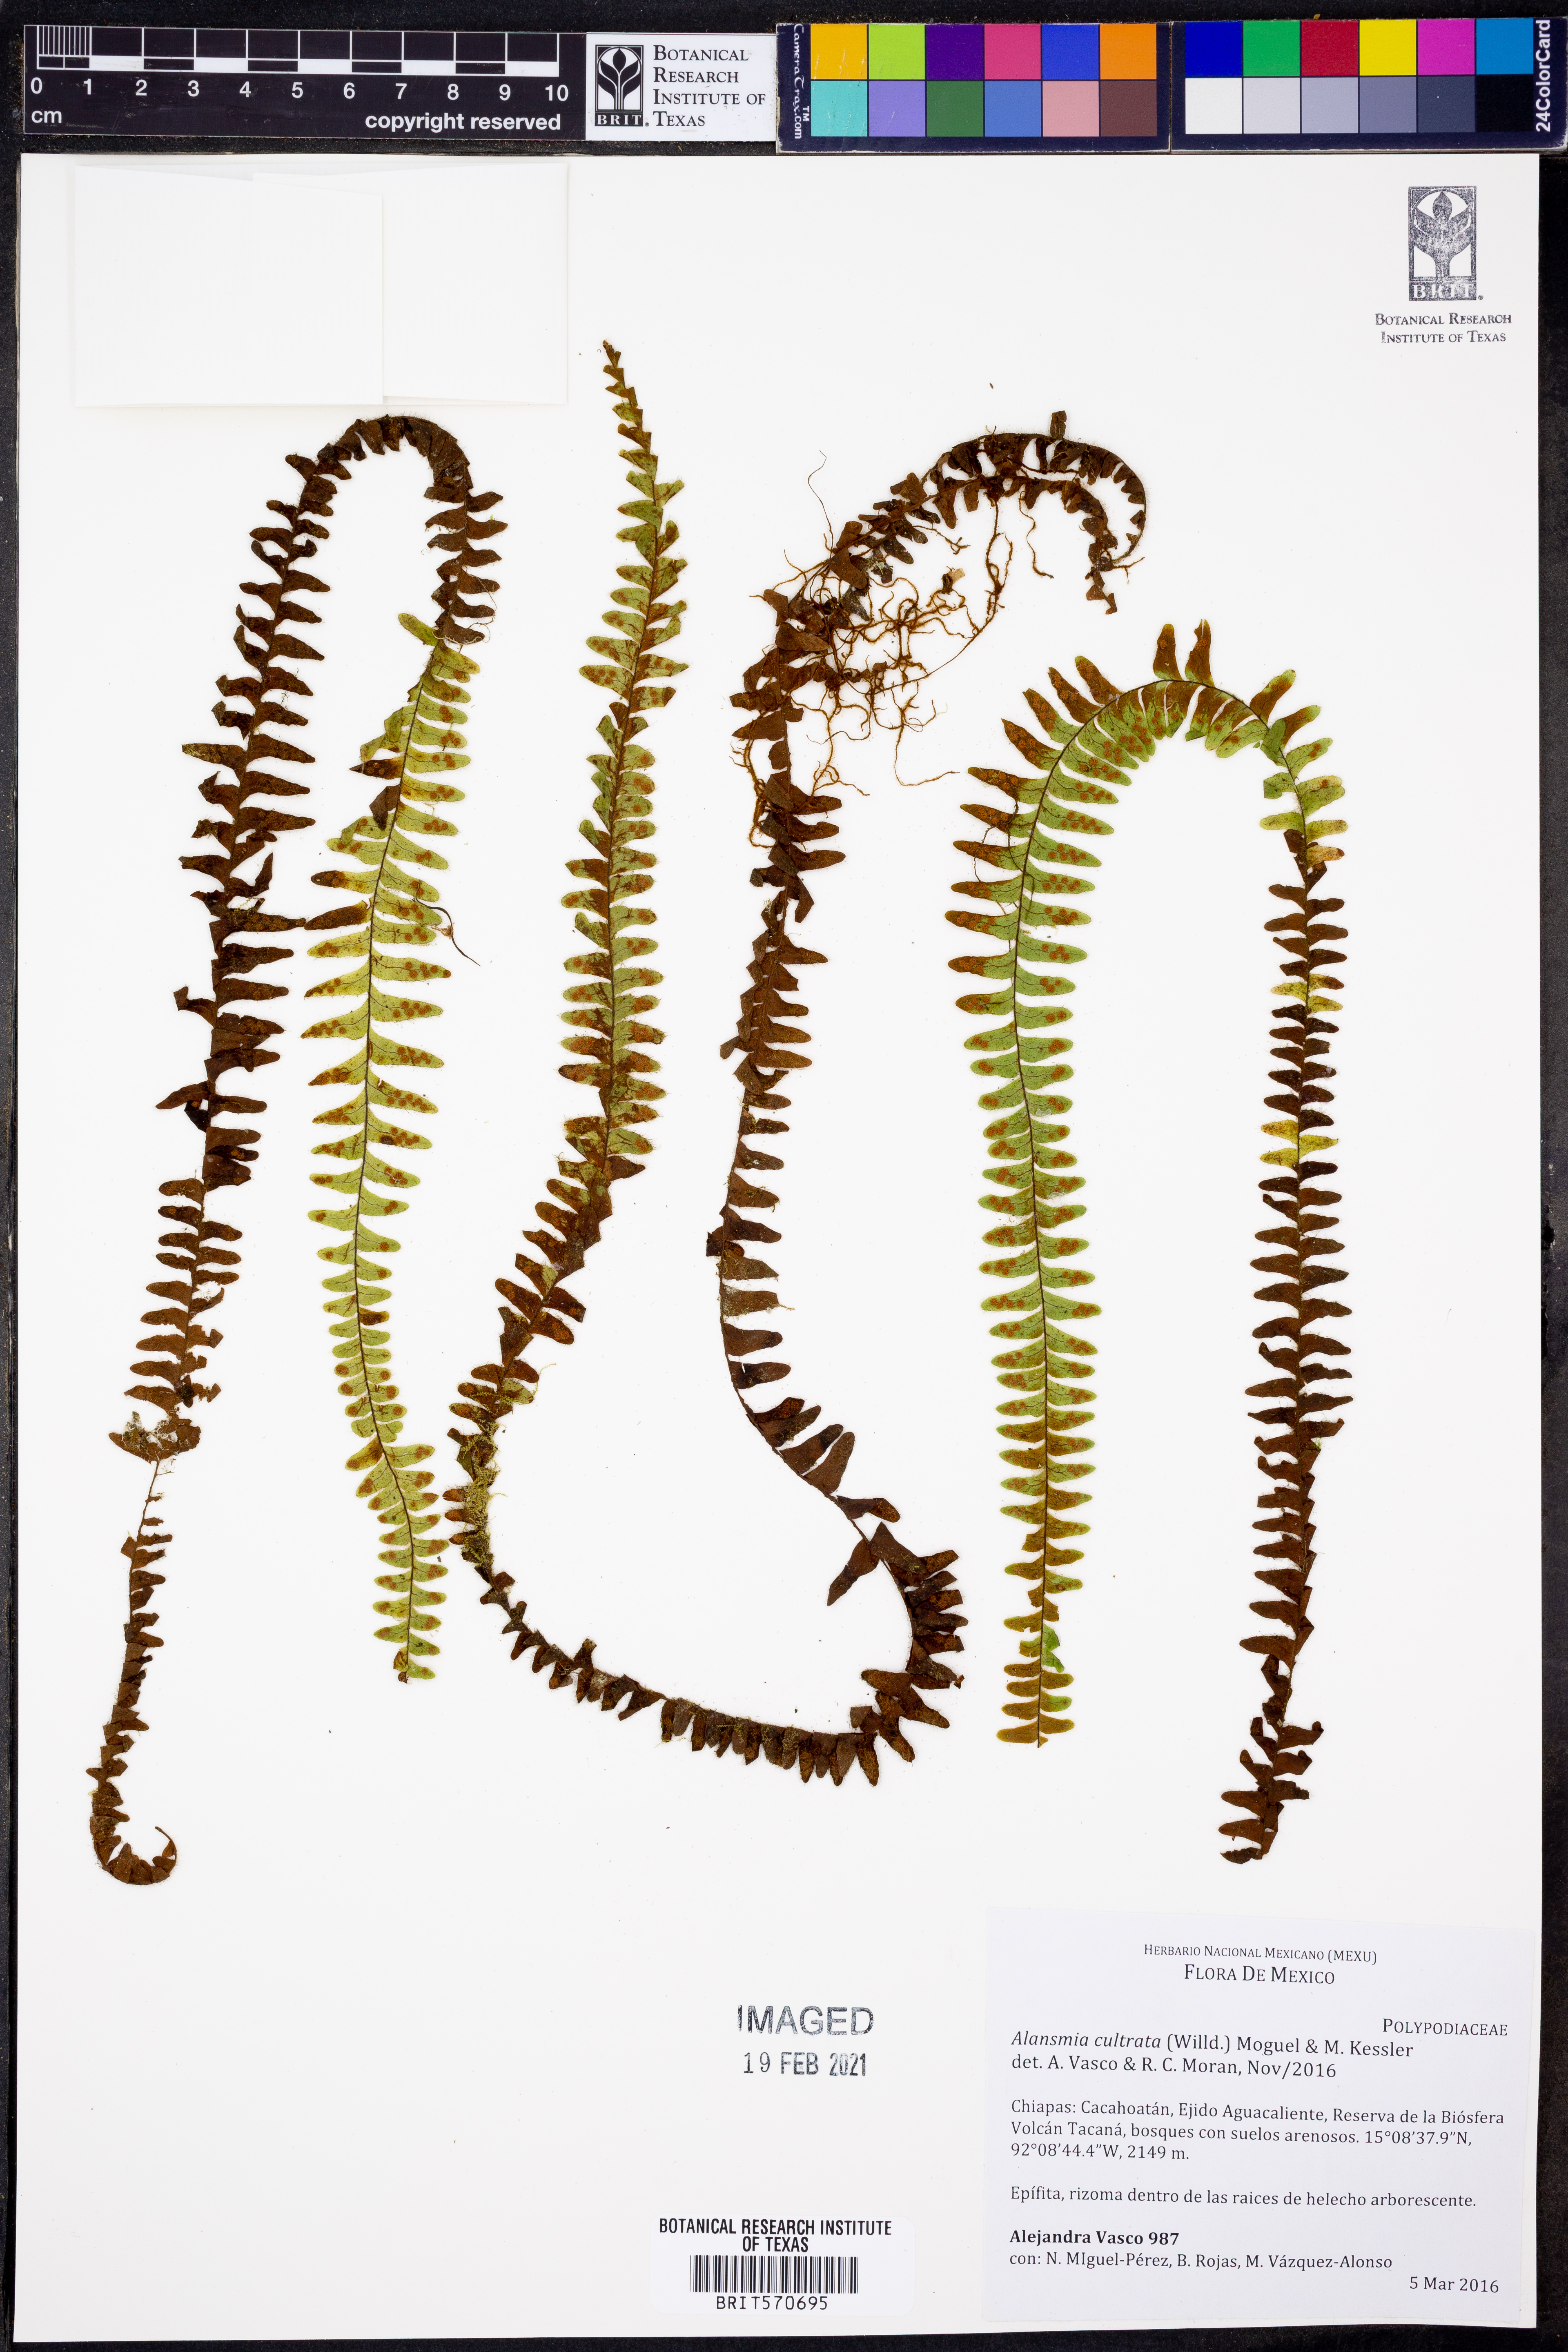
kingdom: Plantae
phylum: Tracheophyta
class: Polypodiopsida
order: Polypodiales
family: Polypodiaceae
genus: Alansmia
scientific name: Alansmia cultrata
